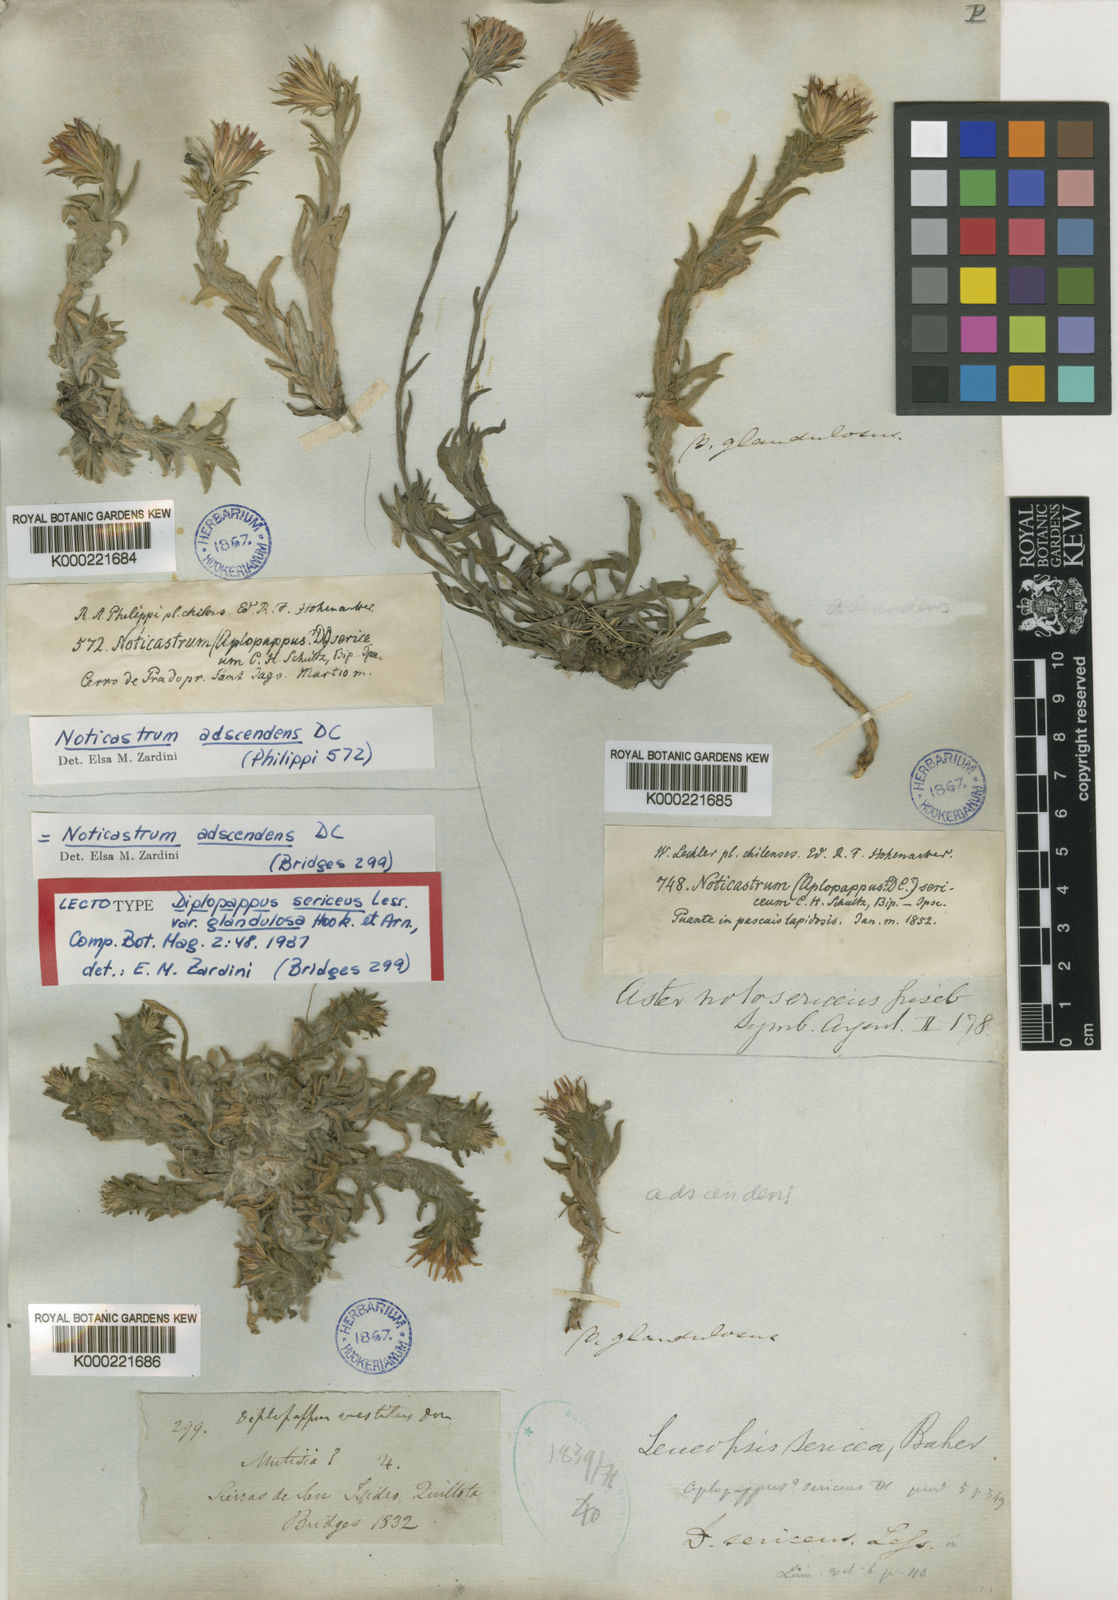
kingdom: Plantae
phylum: Tracheophyta
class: Magnoliopsida
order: Asterales
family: Asteraceae
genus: Noticastrum
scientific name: Noticastrum adscendens
